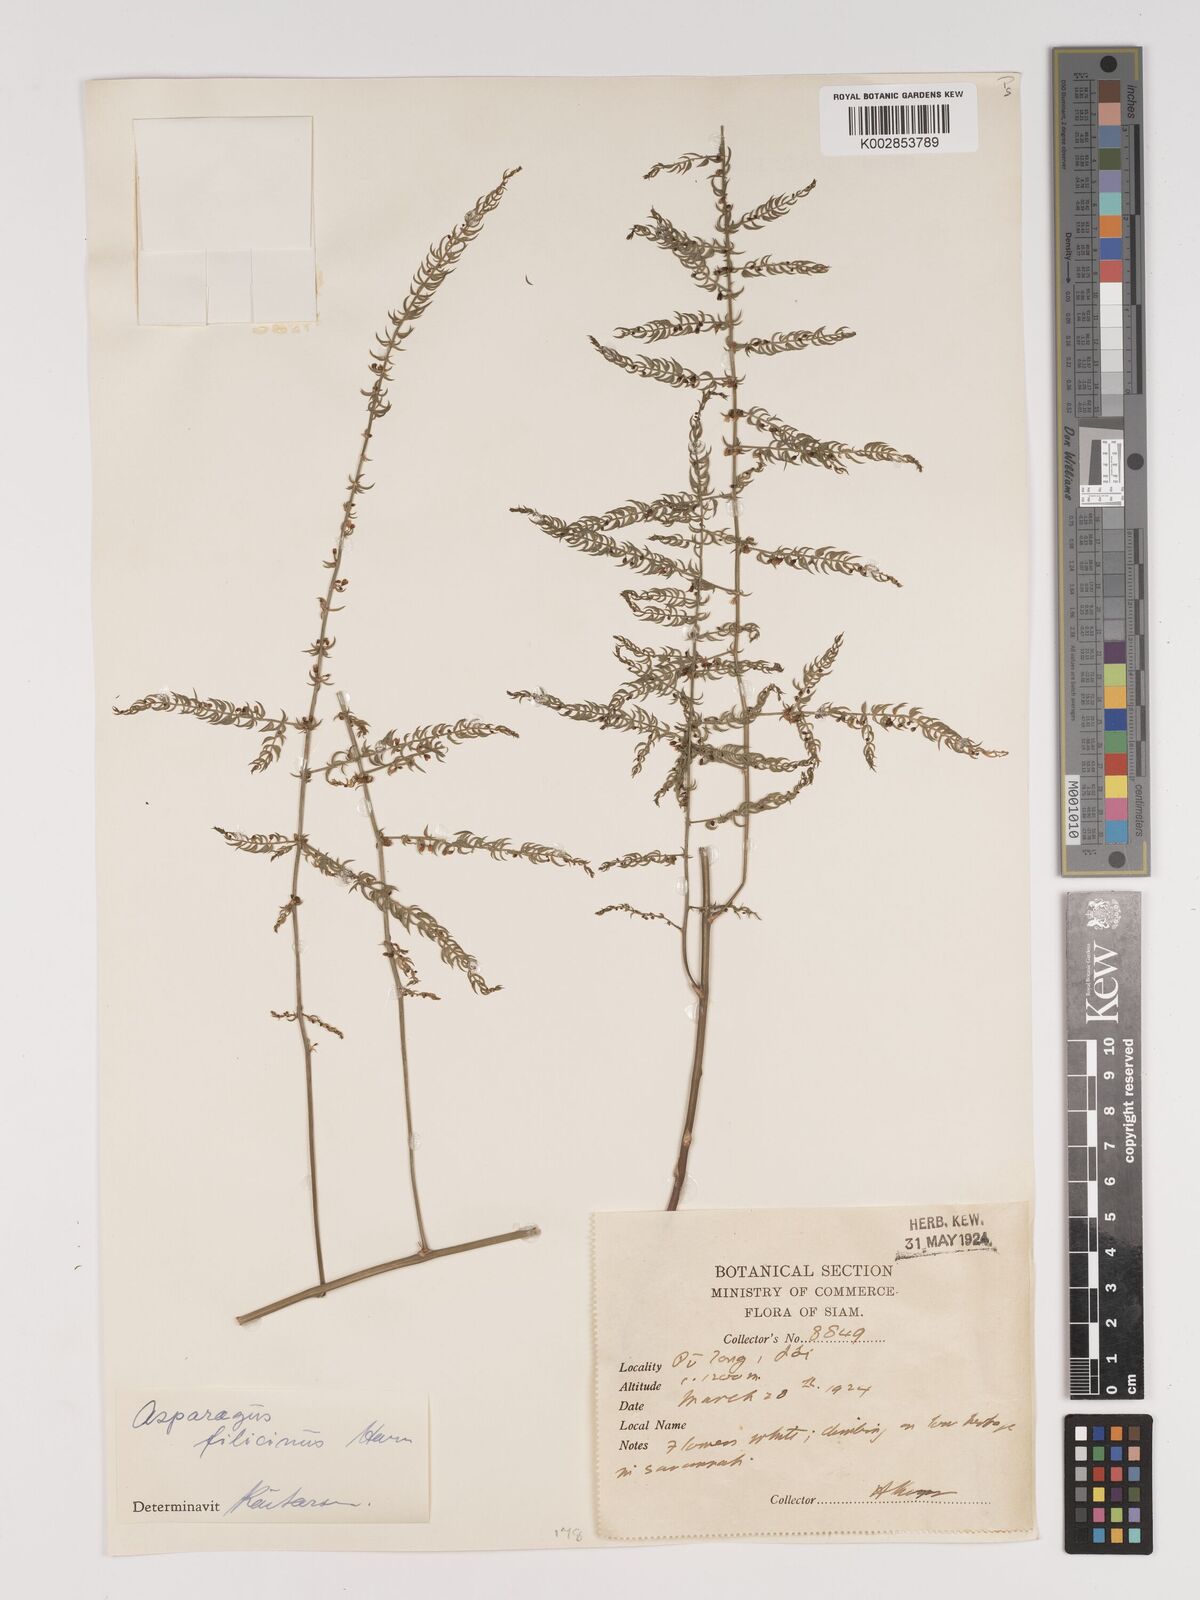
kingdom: Plantae
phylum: Tracheophyta
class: Liliopsida
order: Asparagales
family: Asparagaceae
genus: Asparagus
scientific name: Asparagus filicinus
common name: Fern asparagus
